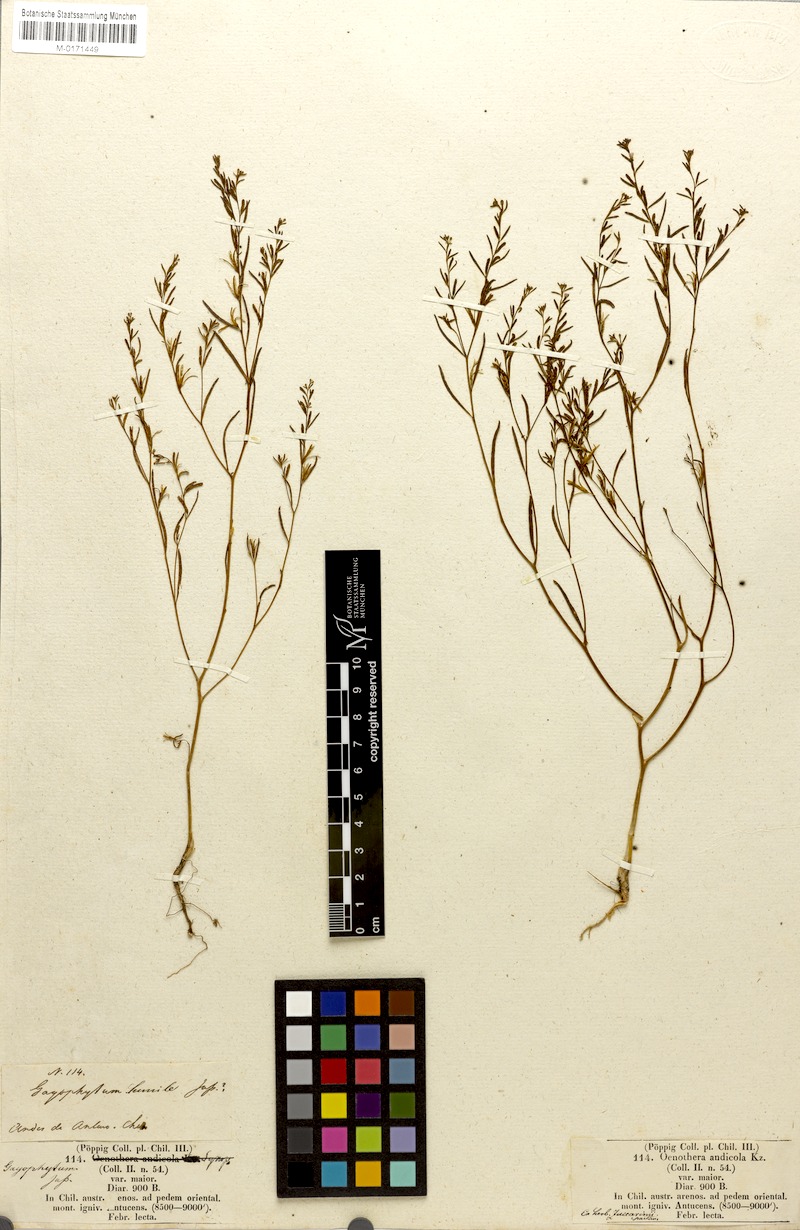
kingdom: Plantae
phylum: Tracheophyta
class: Magnoliopsida
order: Myrtales
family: Onagraceae
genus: Gayophytum
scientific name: Gayophytum humile
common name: Dwarf groundsmoke
